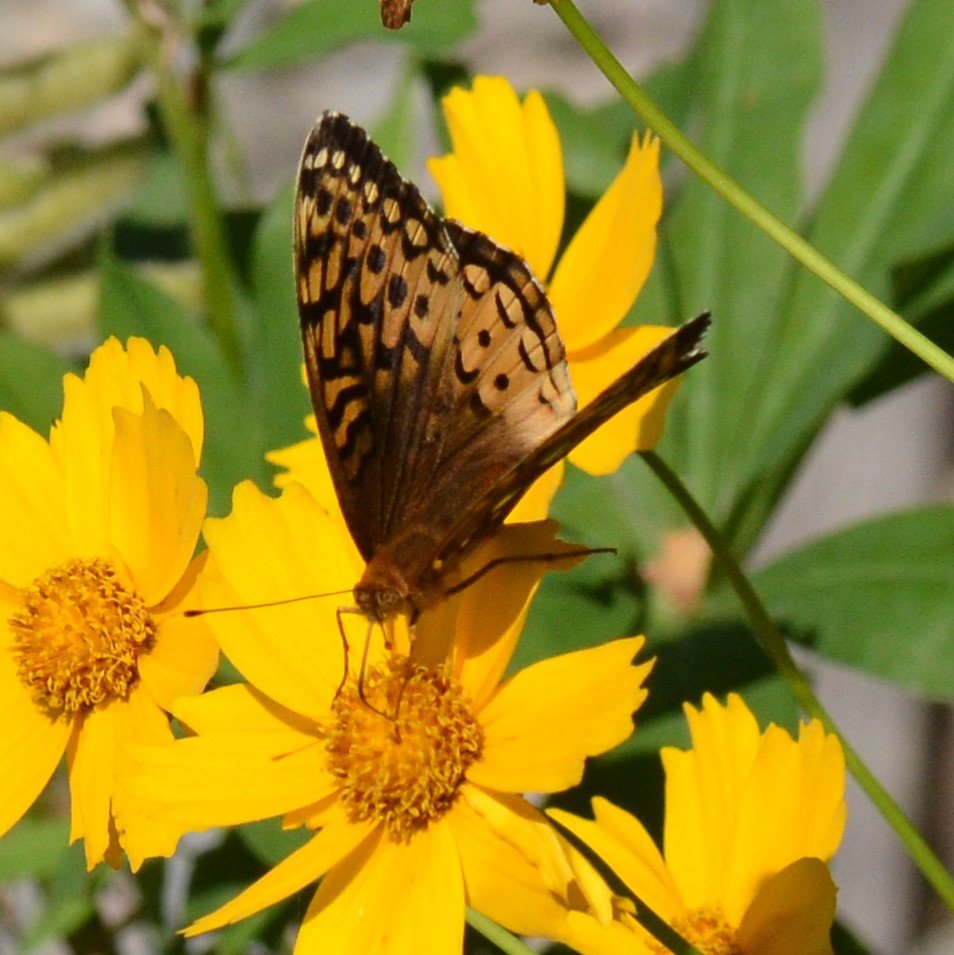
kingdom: Animalia
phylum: Arthropoda
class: Insecta
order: Lepidoptera
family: Nymphalidae
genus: Speyeria
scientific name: Speyeria cybele
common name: Great Spangled Fritillary
